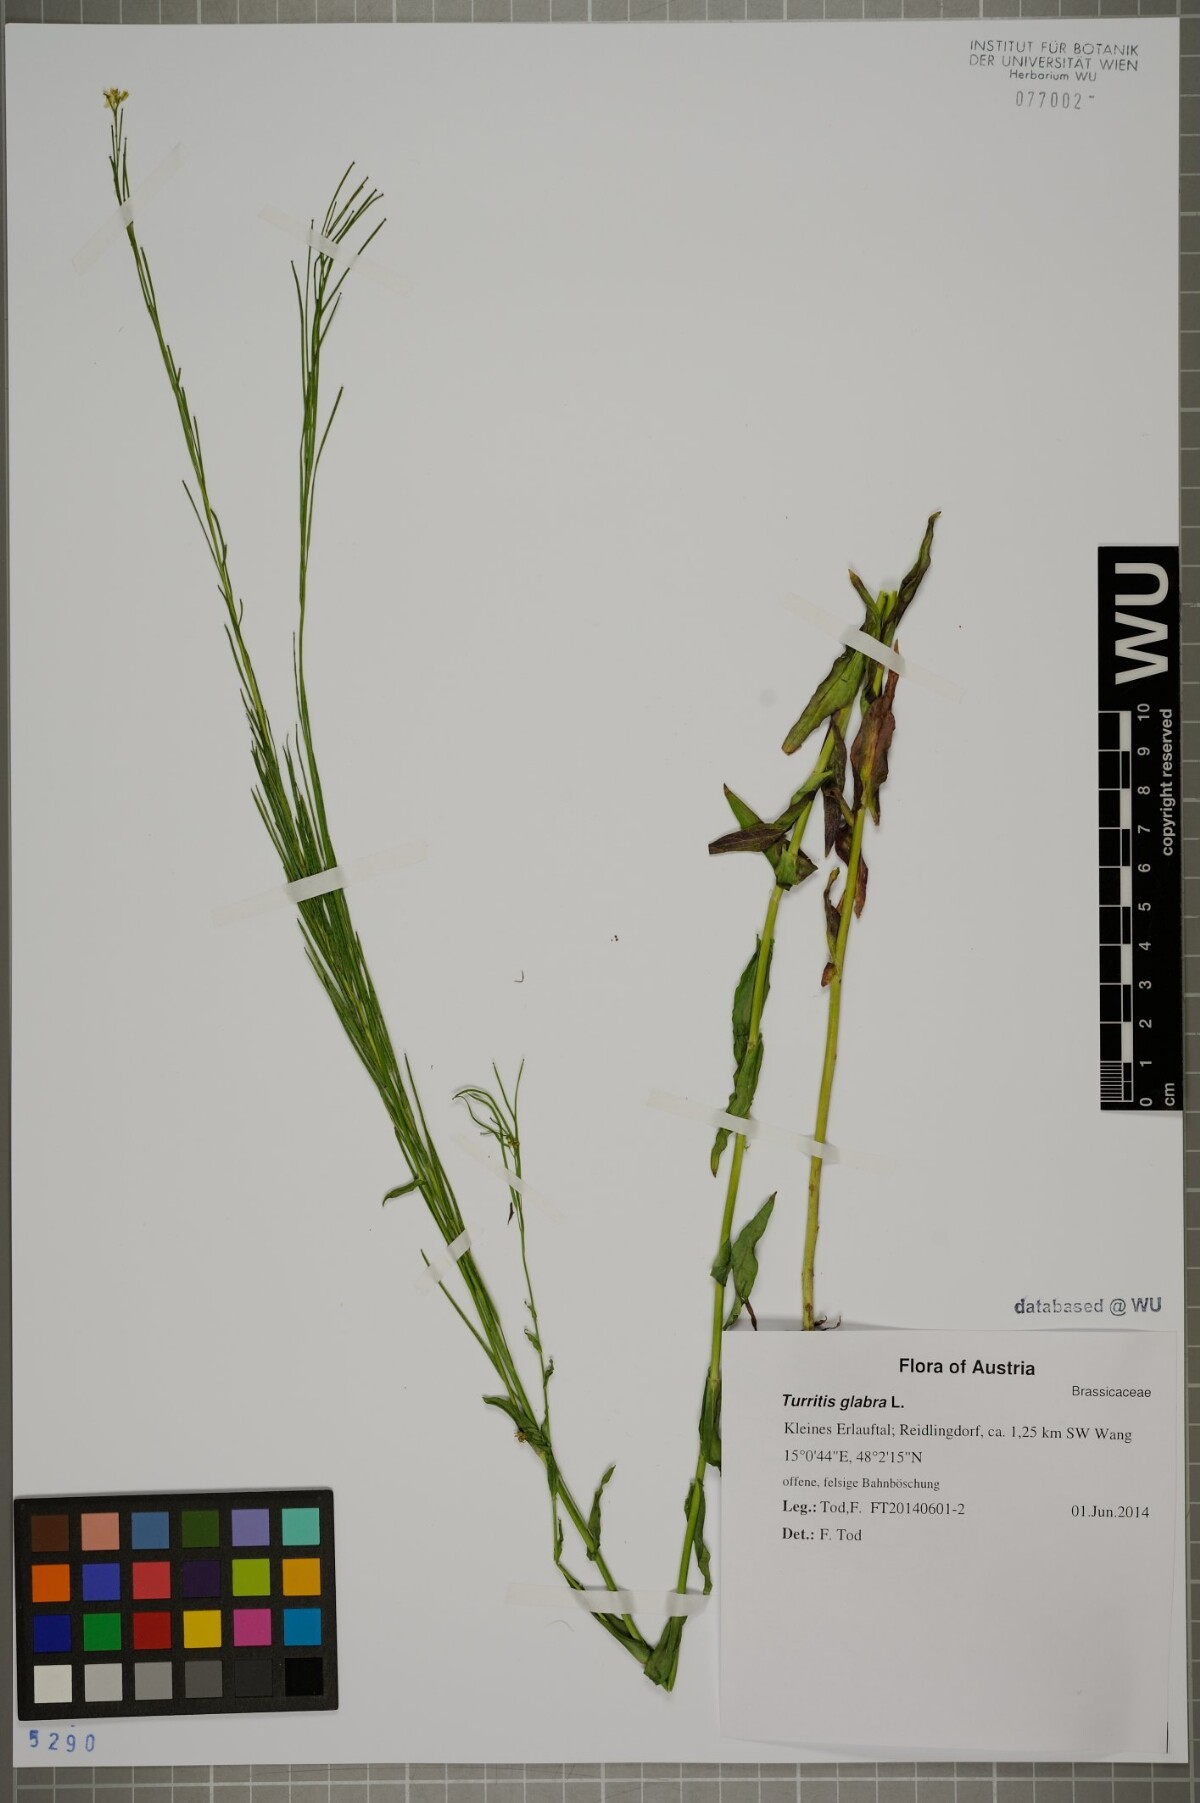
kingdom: Plantae
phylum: Tracheophyta
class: Magnoliopsida
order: Brassicales
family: Brassicaceae
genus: Turritis
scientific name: Turritis glabra
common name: Tower rockcress
